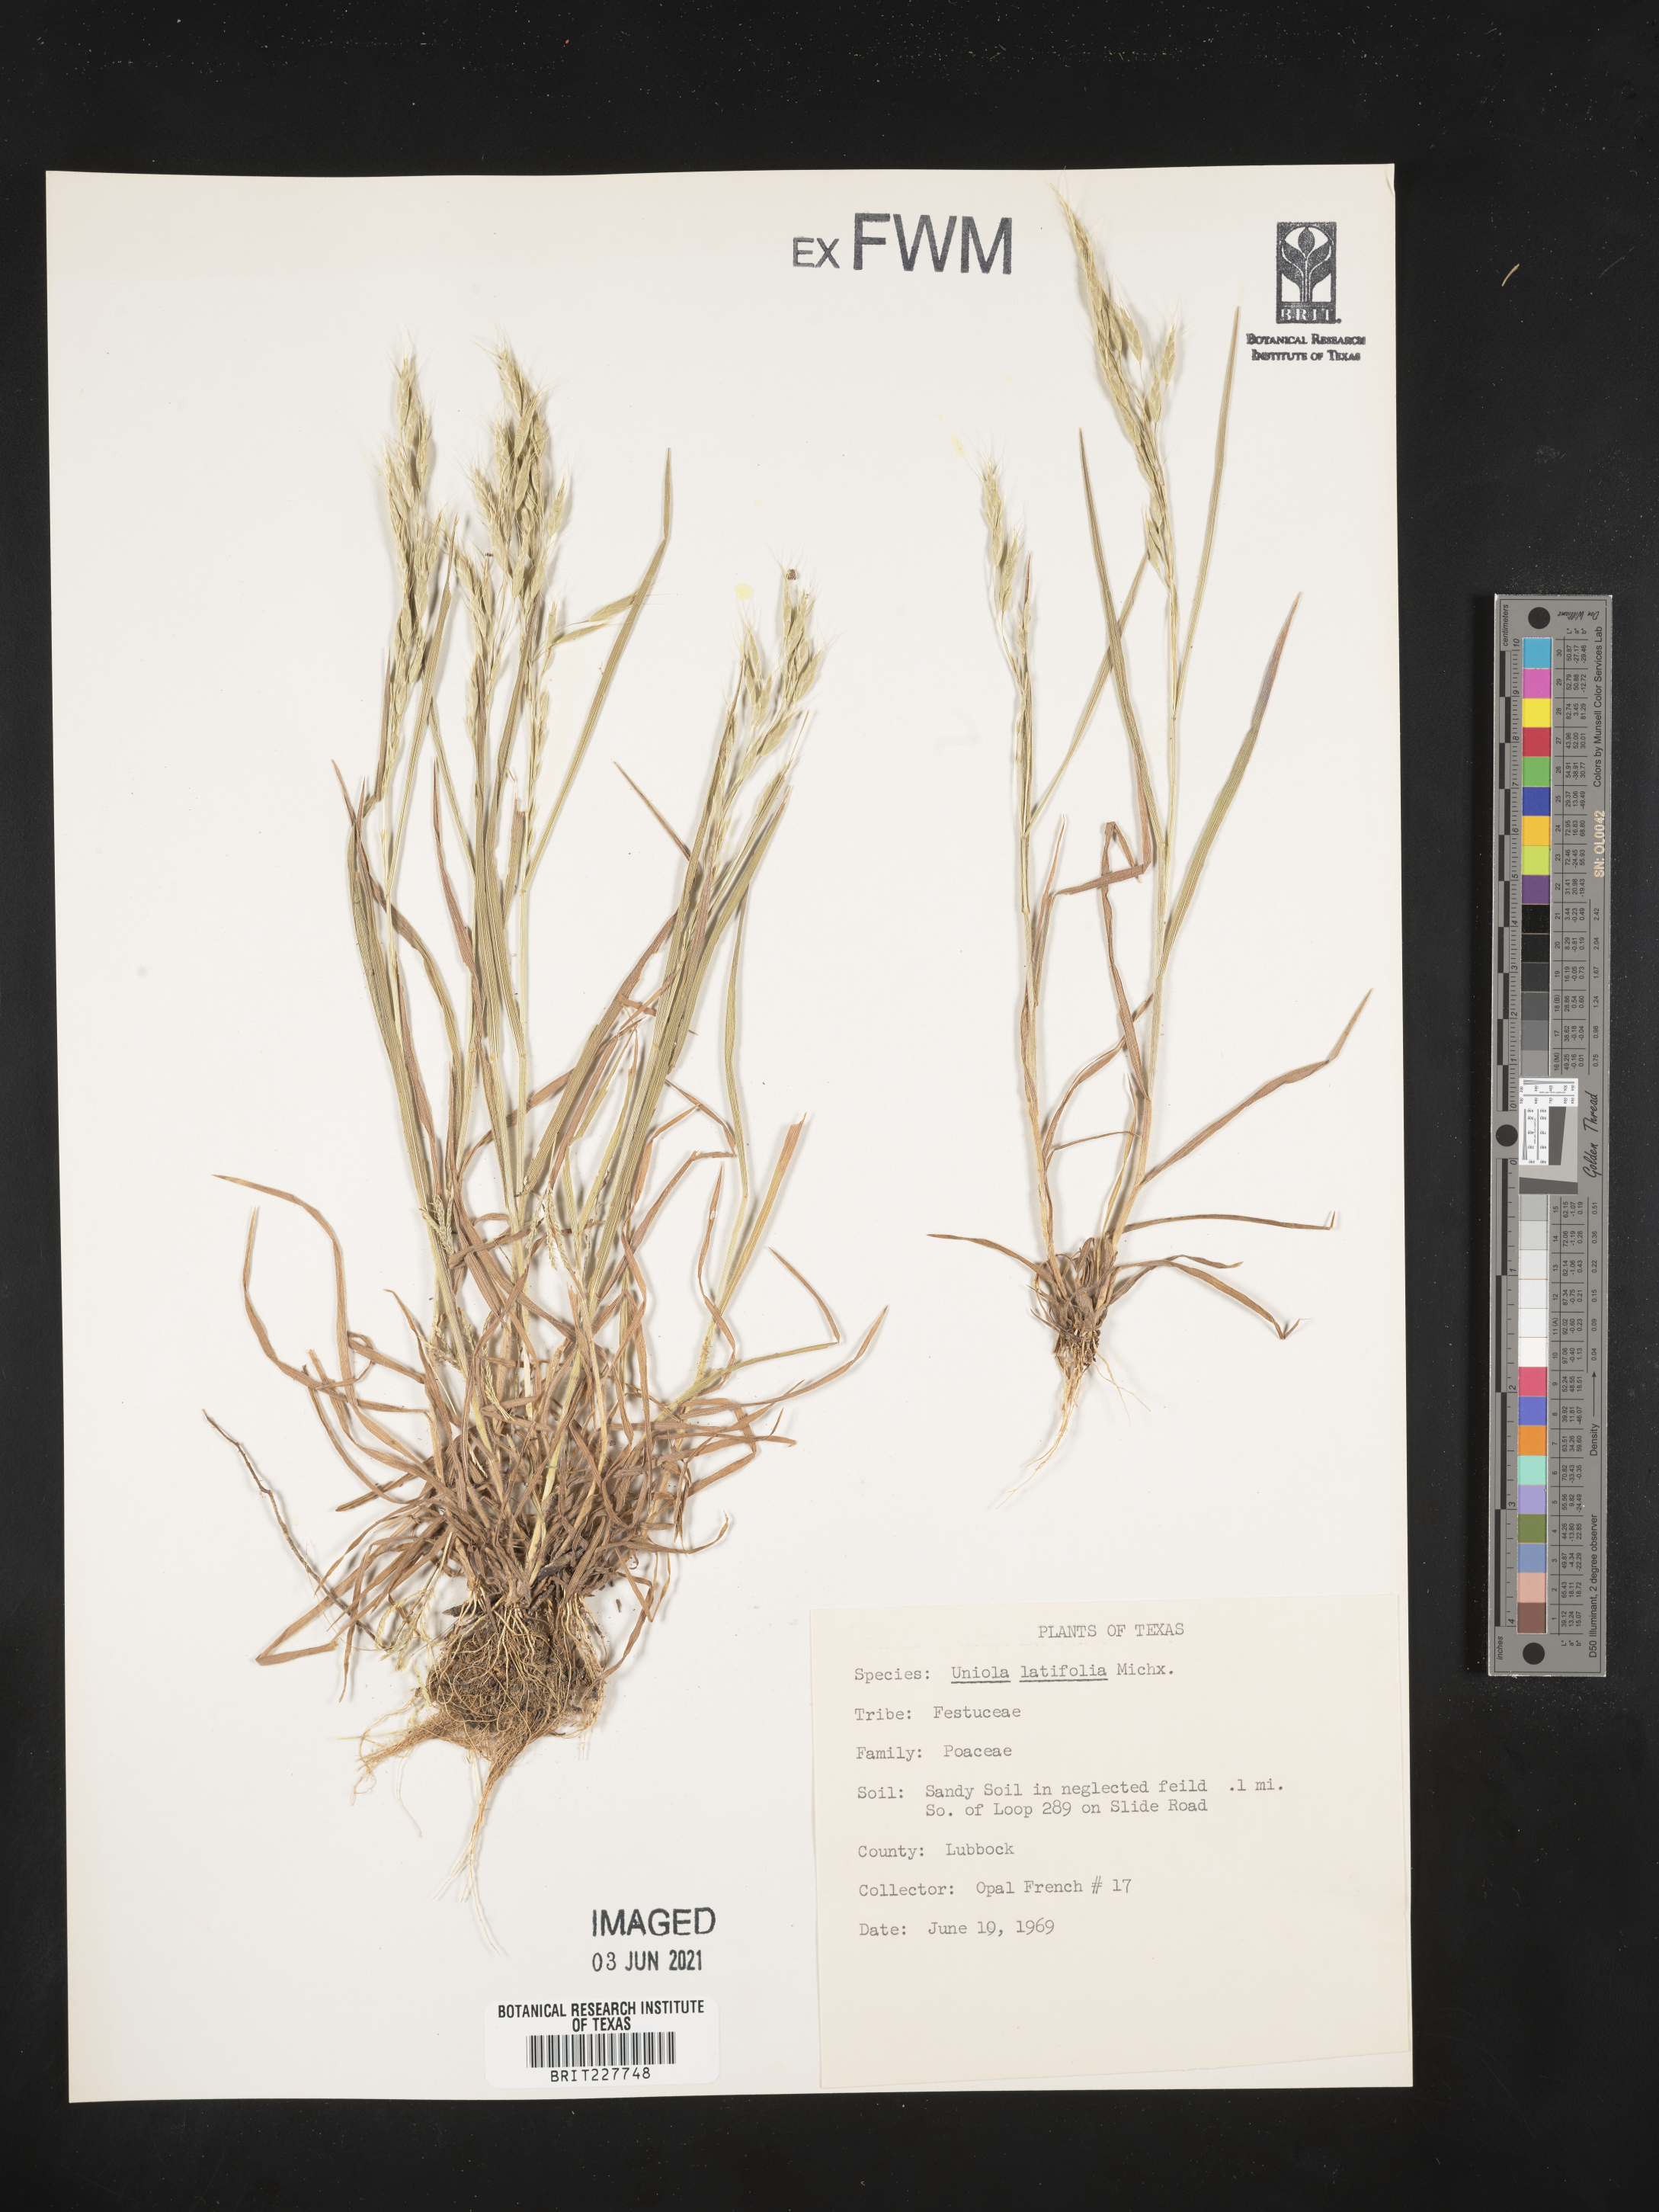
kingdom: Plantae
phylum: Tracheophyta
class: Liliopsida
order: Poales
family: Poaceae
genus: Chasmanthium
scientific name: Chasmanthium latifolium
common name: Broad-leaved chasmanthium
